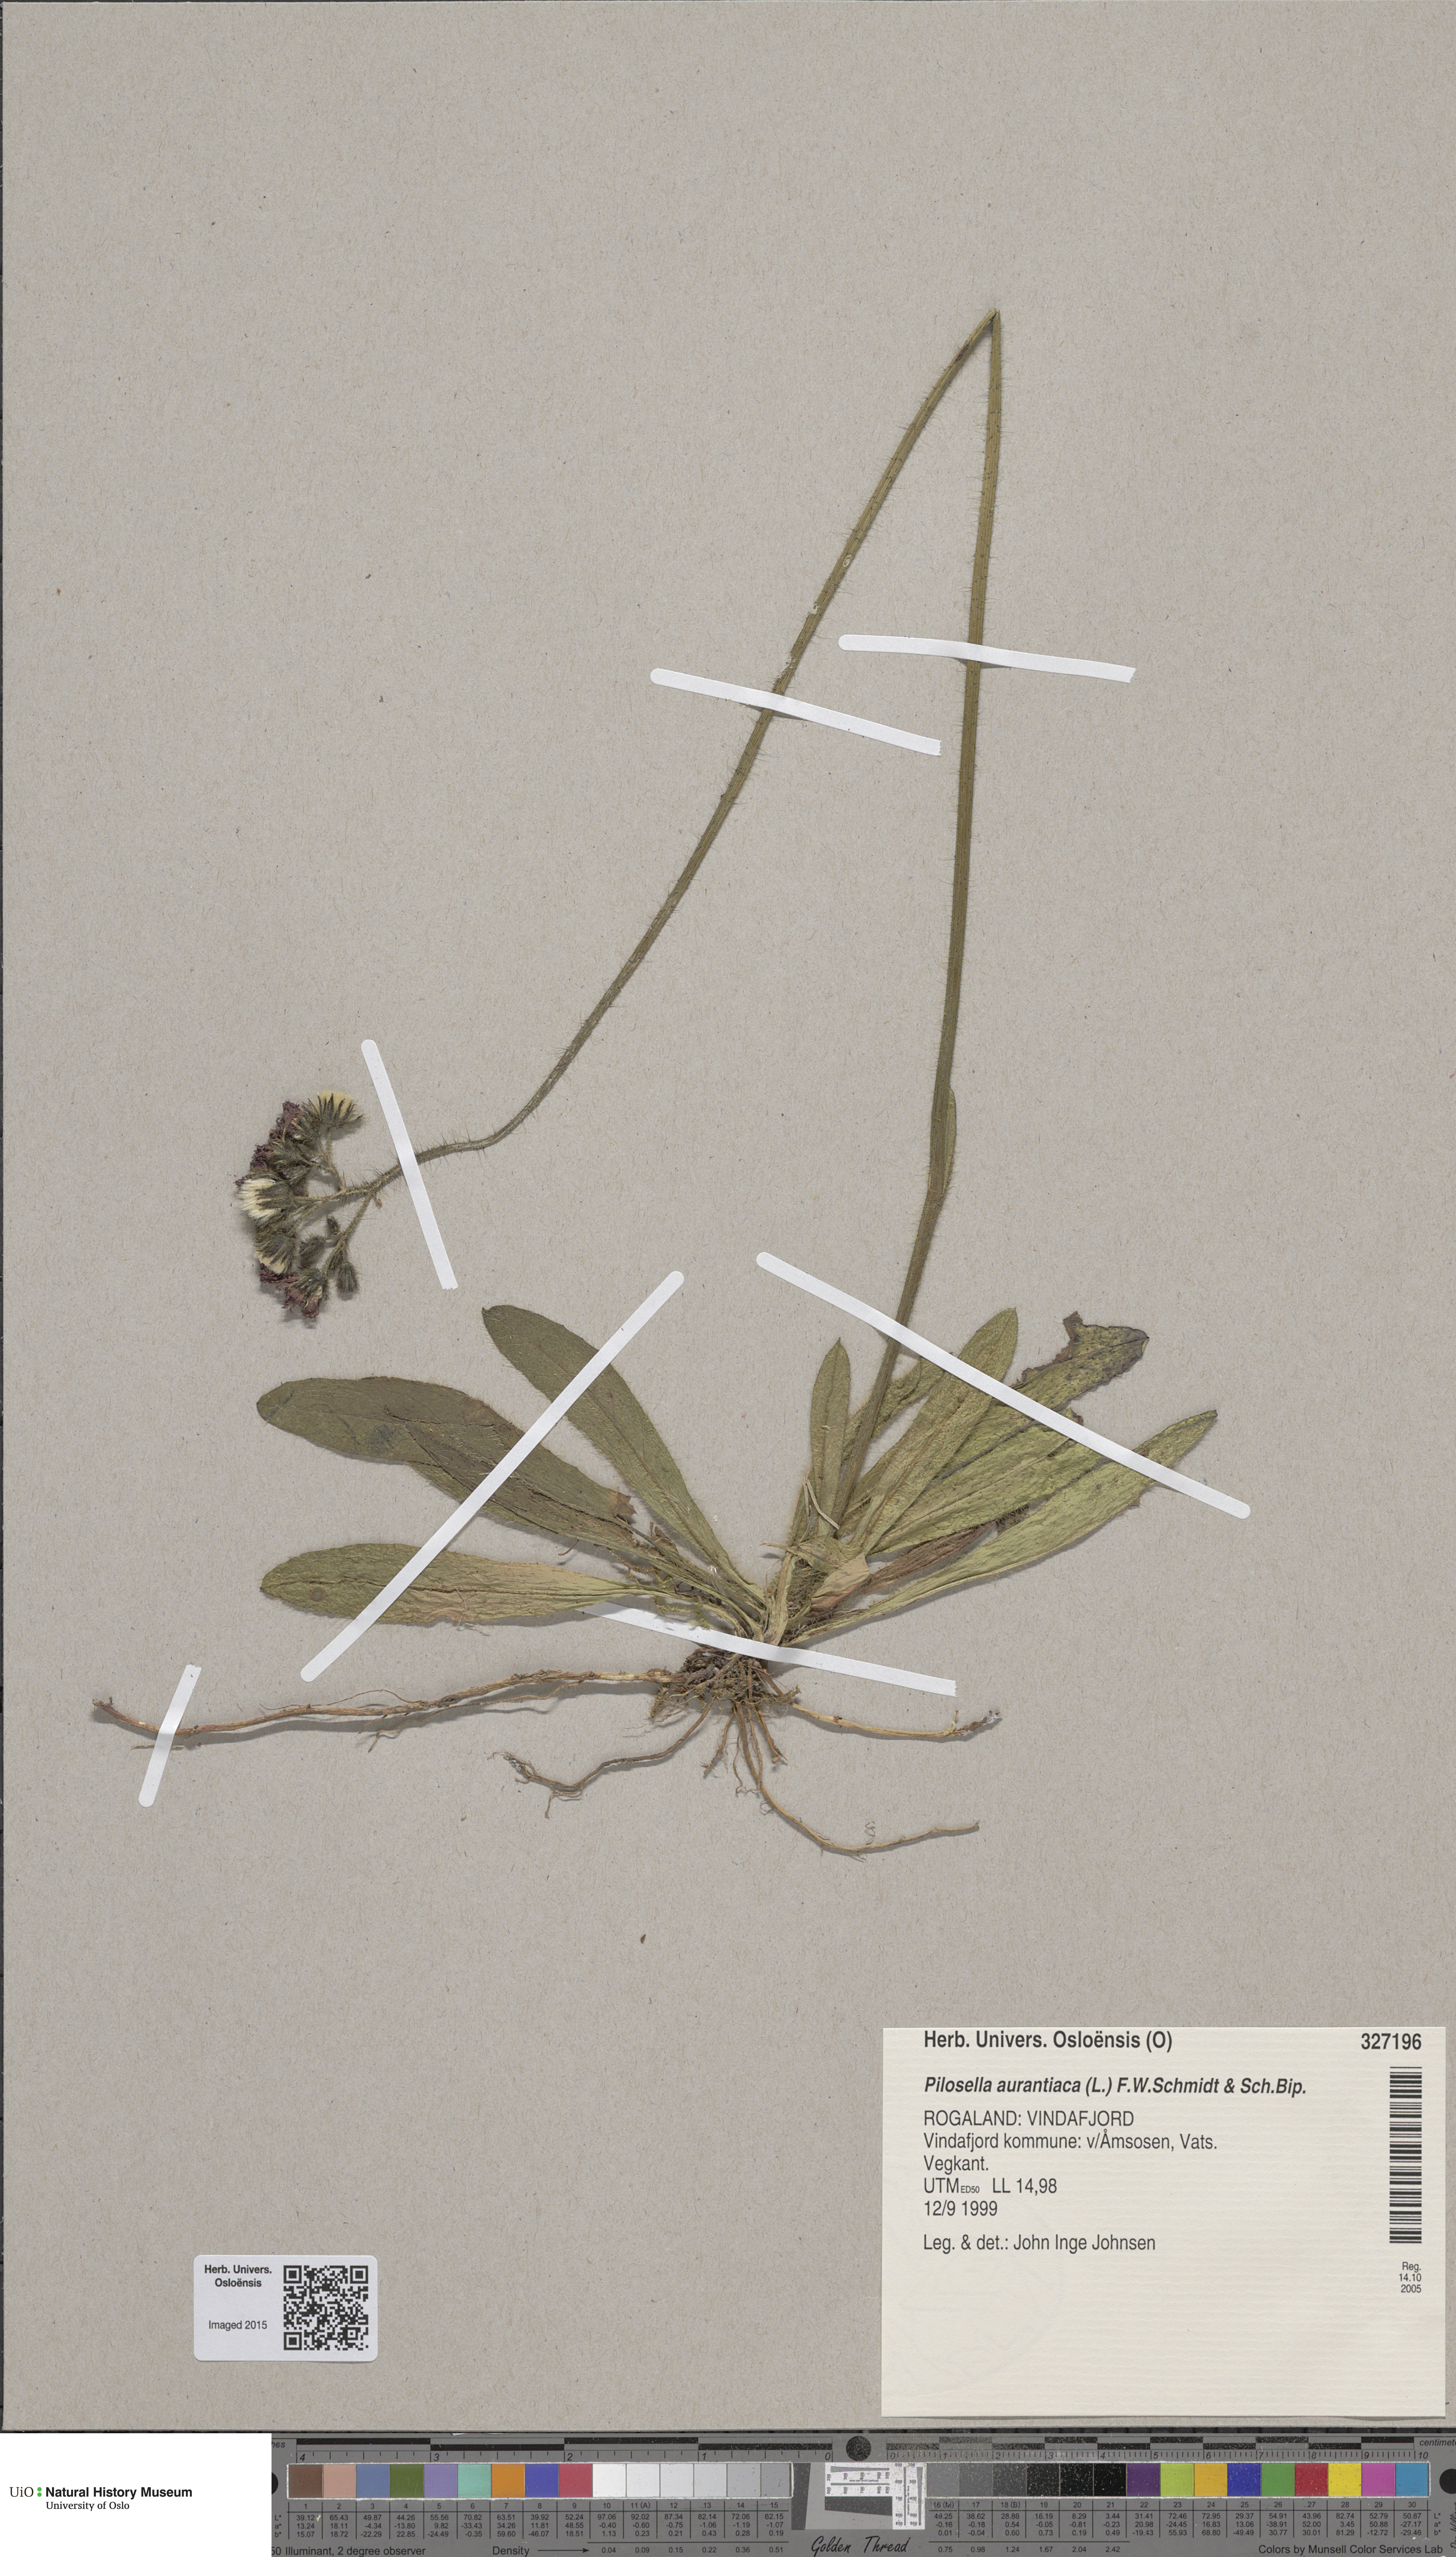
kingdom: Plantae
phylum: Tracheophyta
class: Magnoliopsida
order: Asterales
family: Asteraceae
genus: Pilosella
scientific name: Pilosella aurantiaca
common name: Fox-and-cubs
